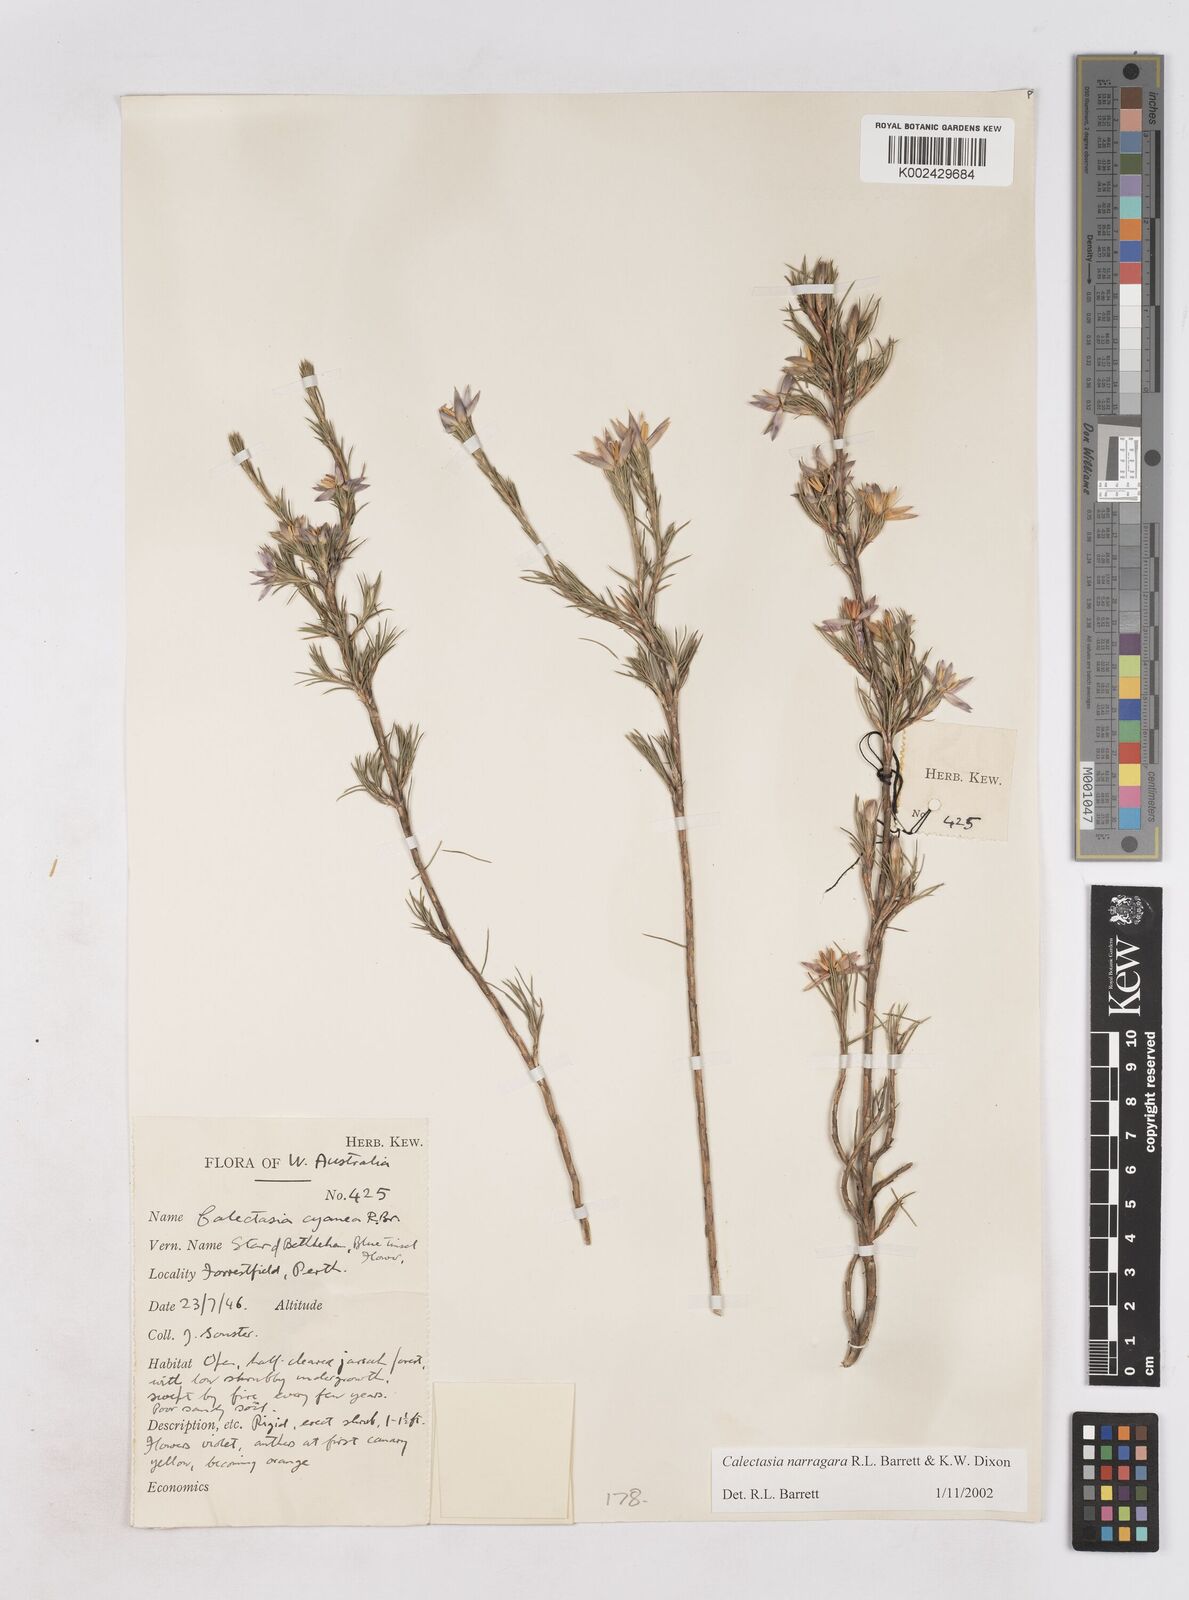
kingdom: Plantae
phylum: Tracheophyta
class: Liliopsida
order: Arecales
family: Dasypogonaceae
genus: Calectasia
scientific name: Calectasia narragara
